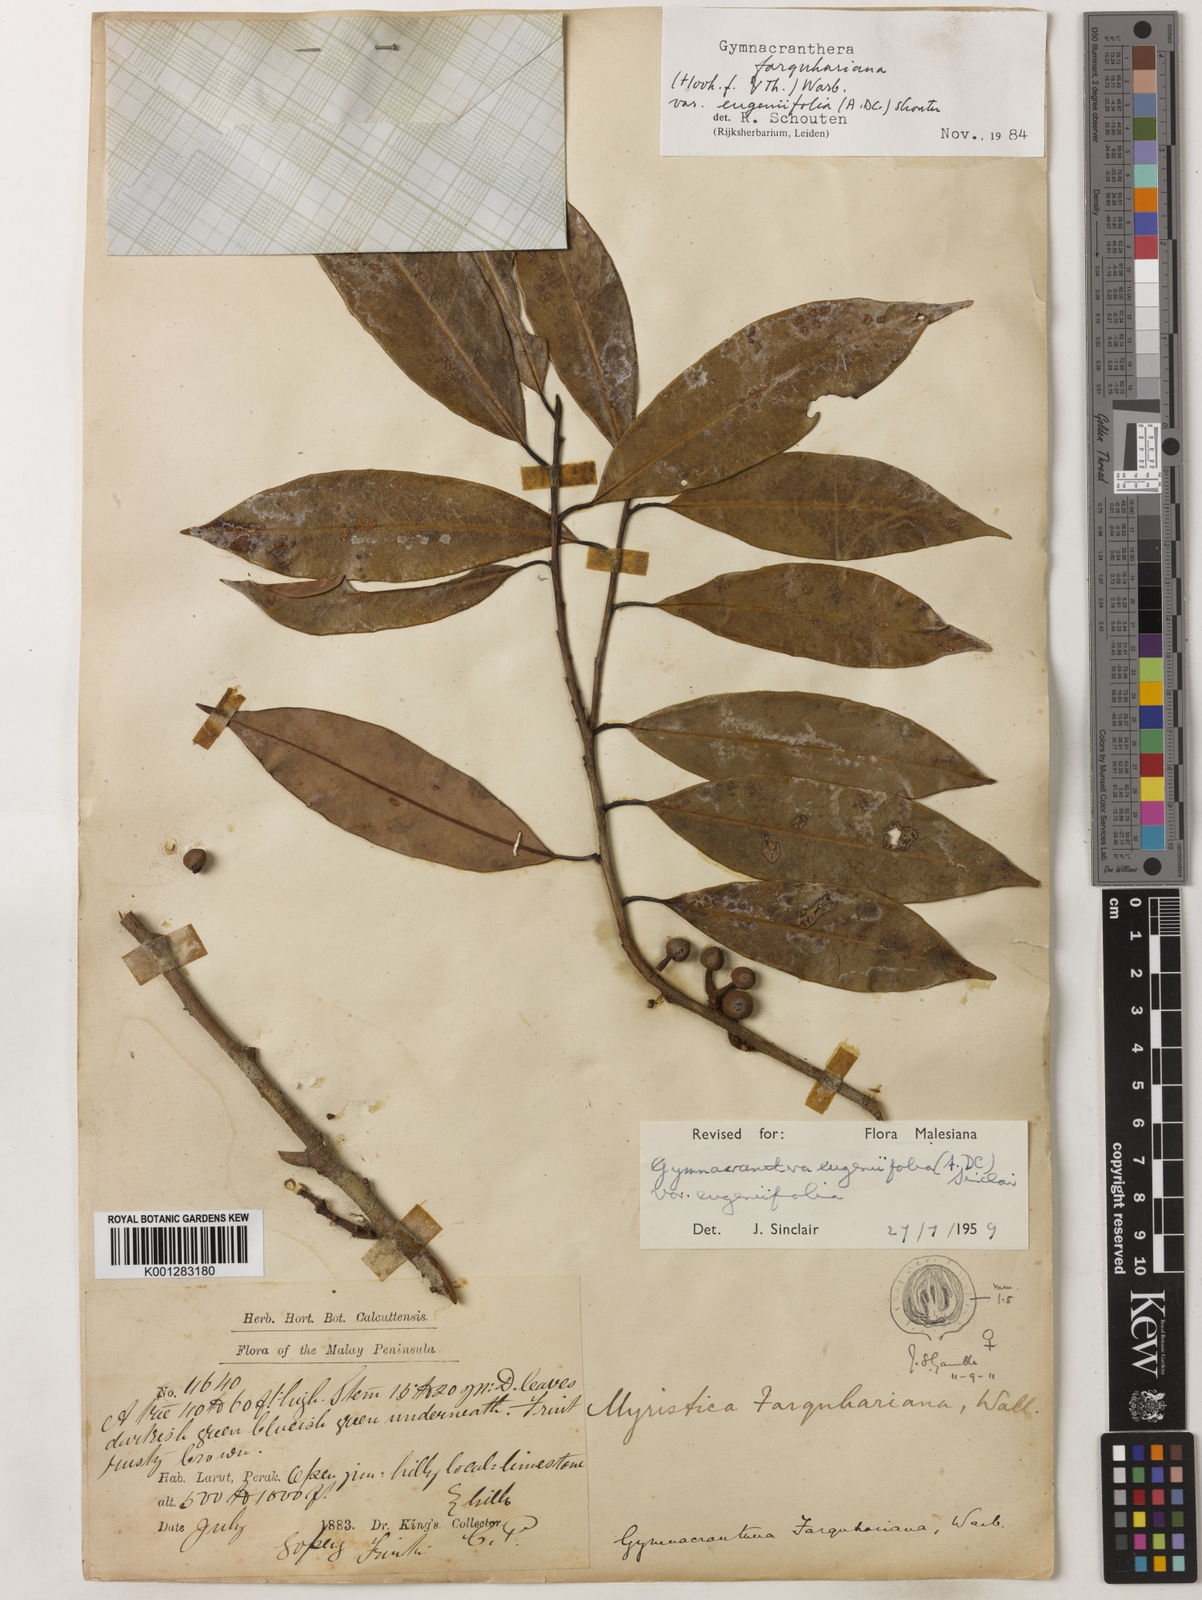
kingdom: Plantae
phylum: Tracheophyta
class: Magnoliopsida
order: Magnoliales
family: Myristicaceae
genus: Gymnacranthera
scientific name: Gymnacranthera farquhariana
